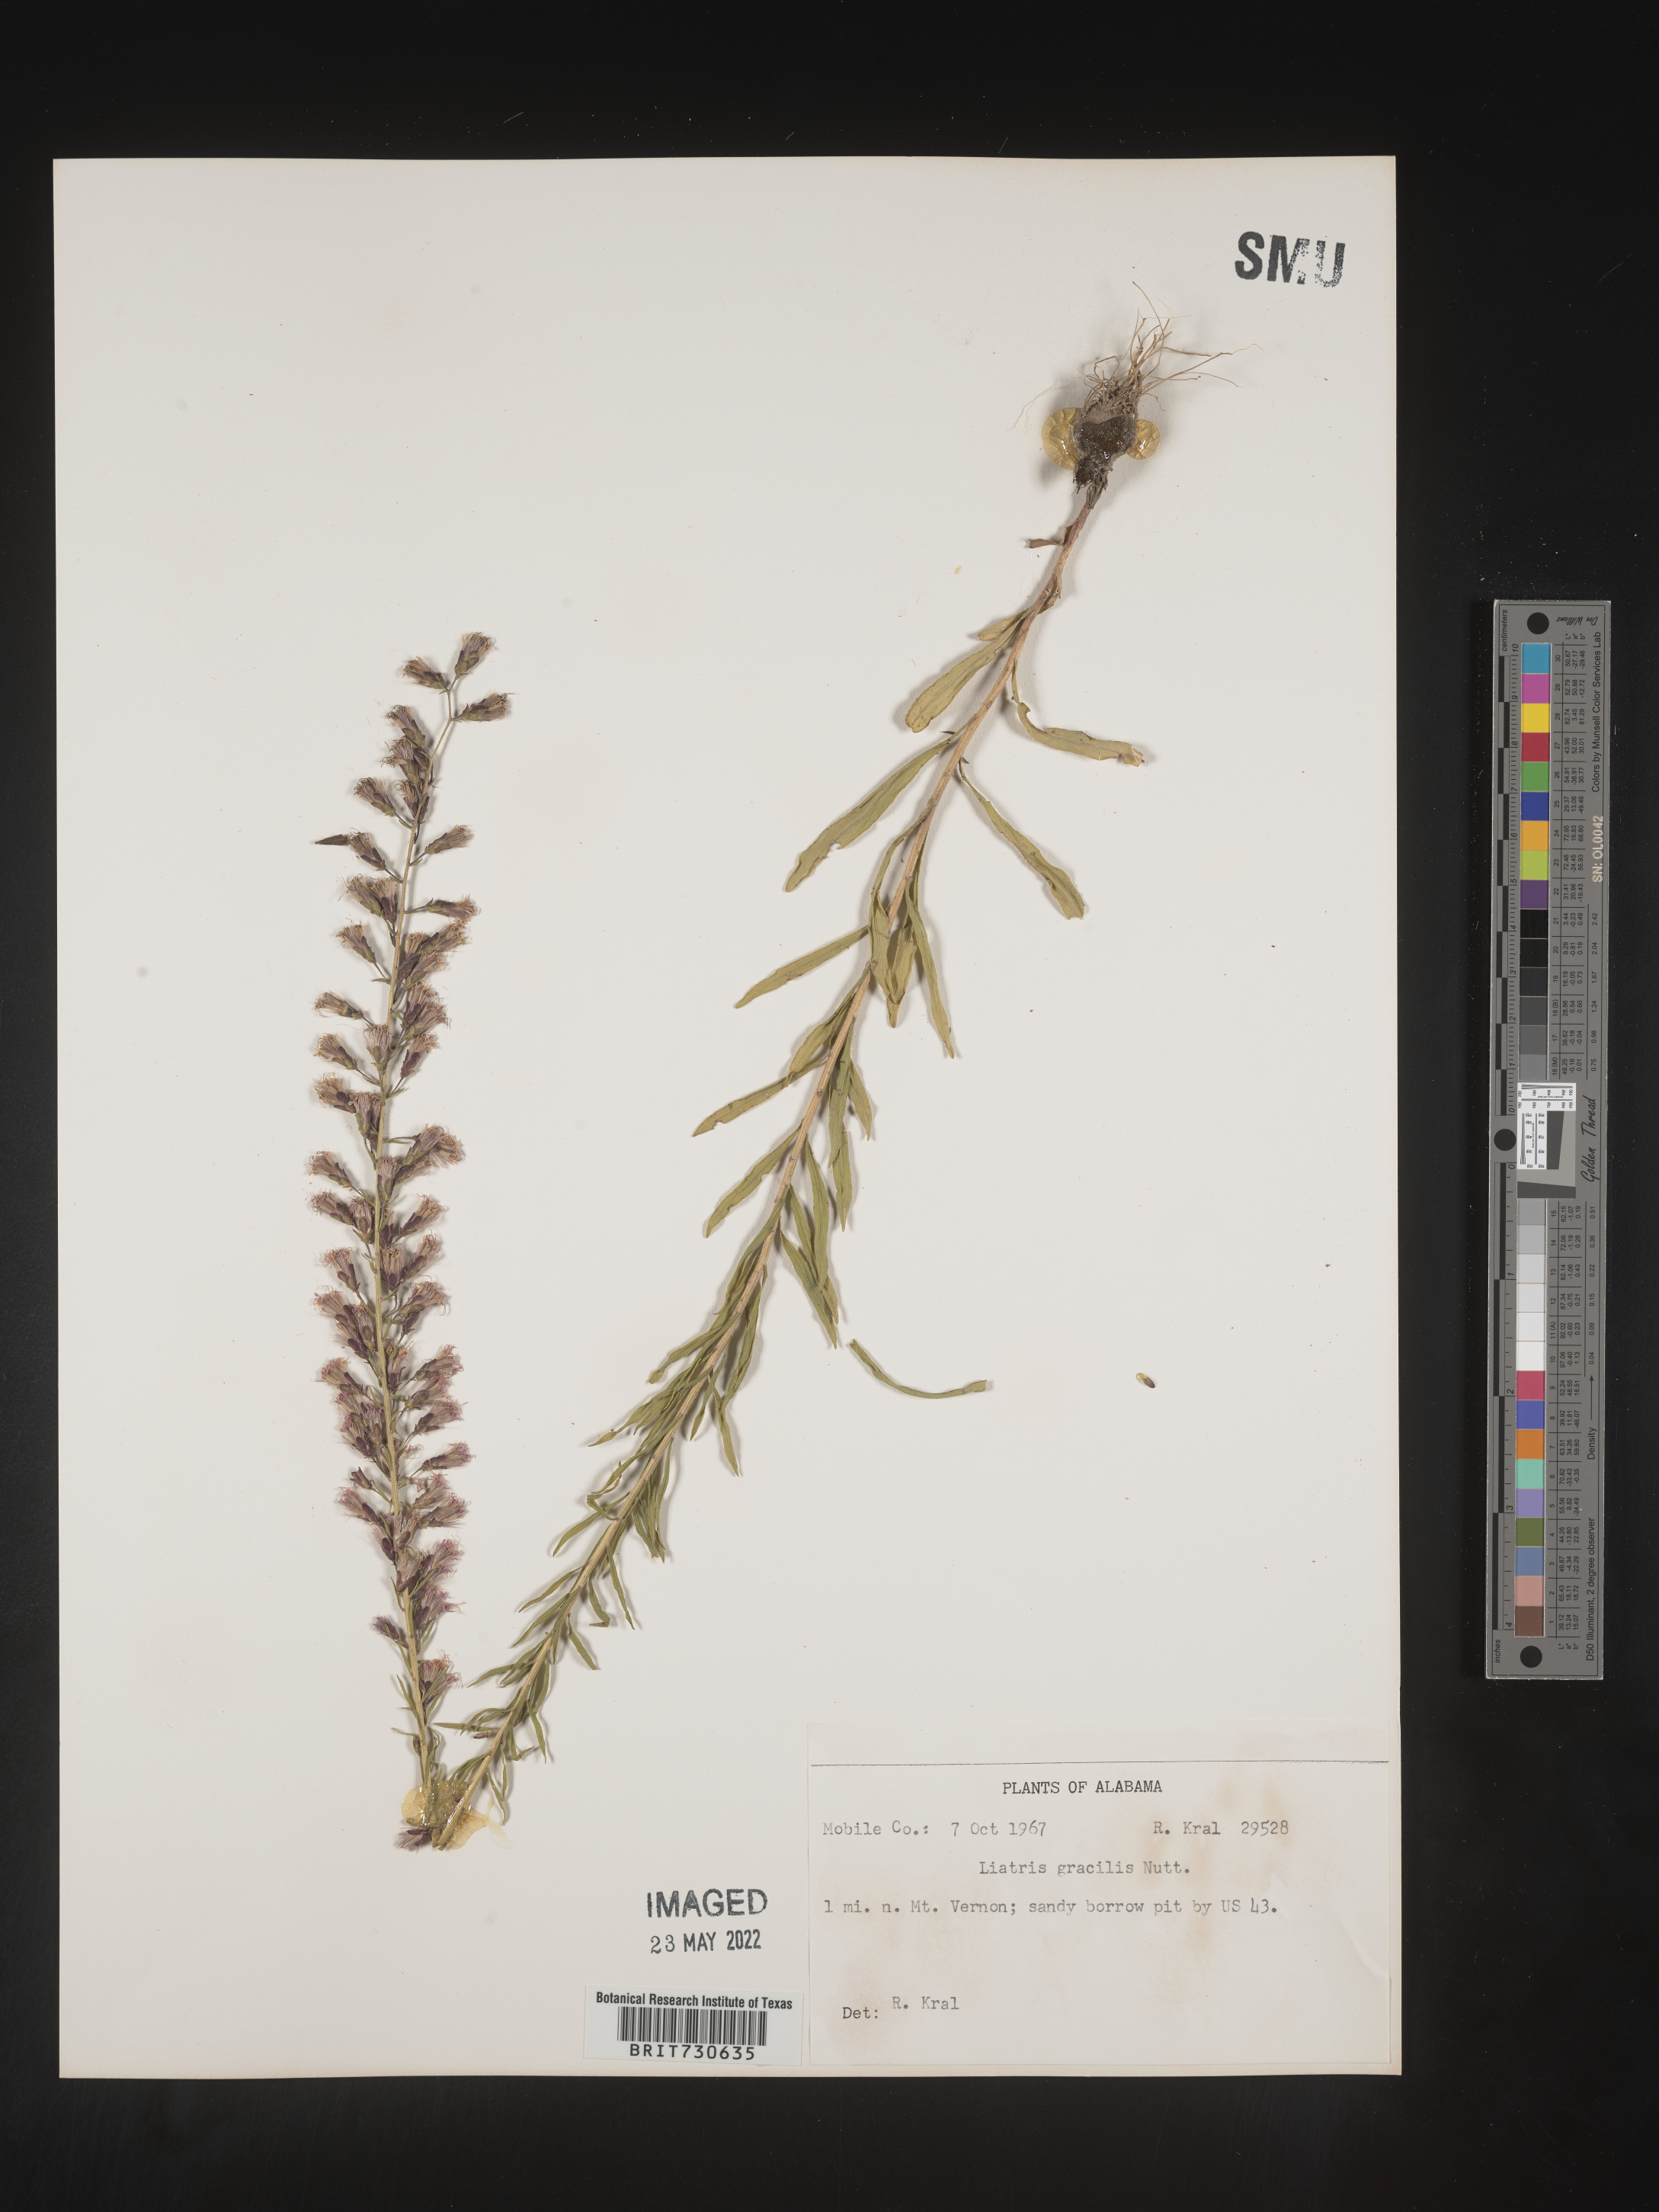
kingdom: Plantae
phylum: Tracheophyta
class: Magnoliopsida
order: Asterales
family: Asteraceae
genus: Liatris
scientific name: Liatris gracilis
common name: Slender gayfeather
